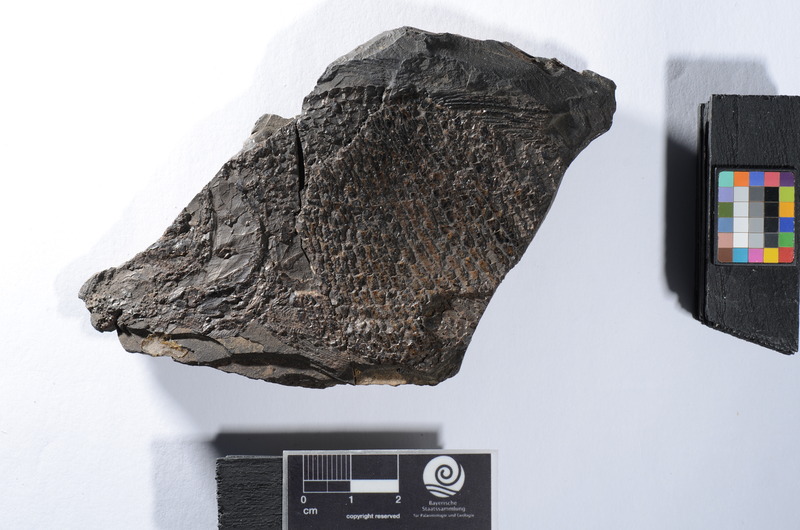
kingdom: Animalia
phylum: Chordata
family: Colobodontidae
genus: Colobodus
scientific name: Colobodus Semionotus latus
